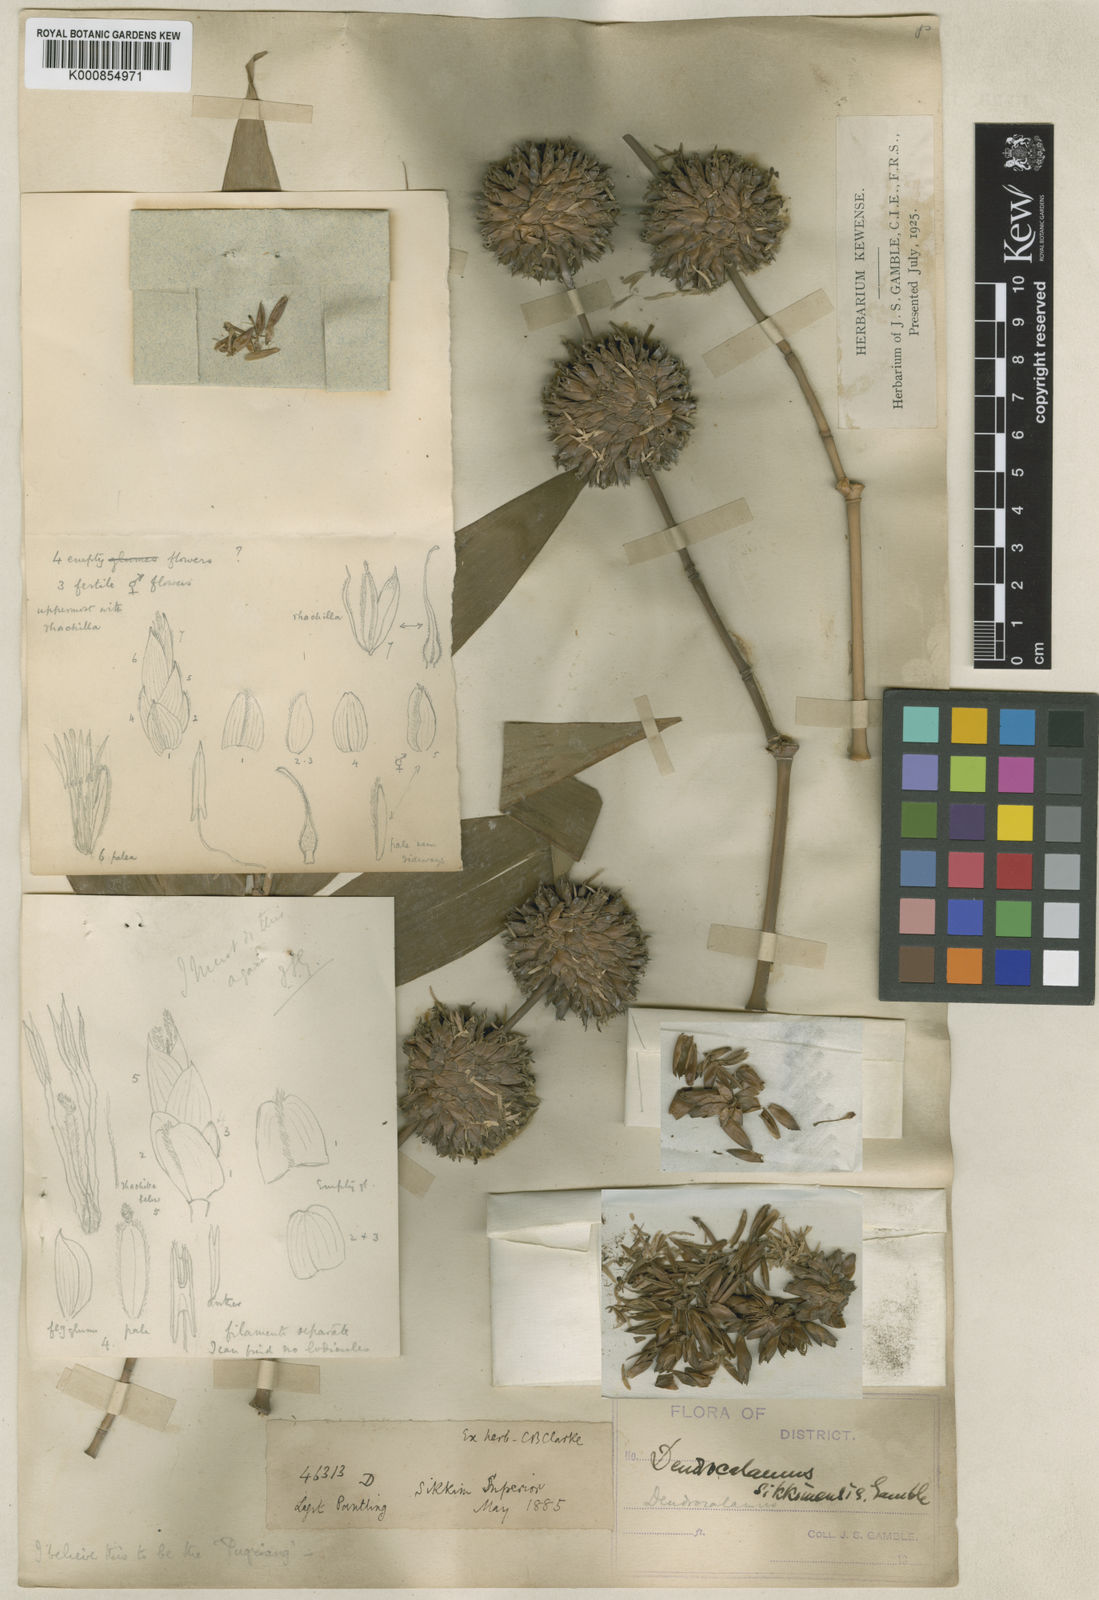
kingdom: Plantae
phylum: Tracheophyta
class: Liliopsida
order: Poales
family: Poaceae
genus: Dendrocalamus
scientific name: Dendrocalamus sikkimensis
